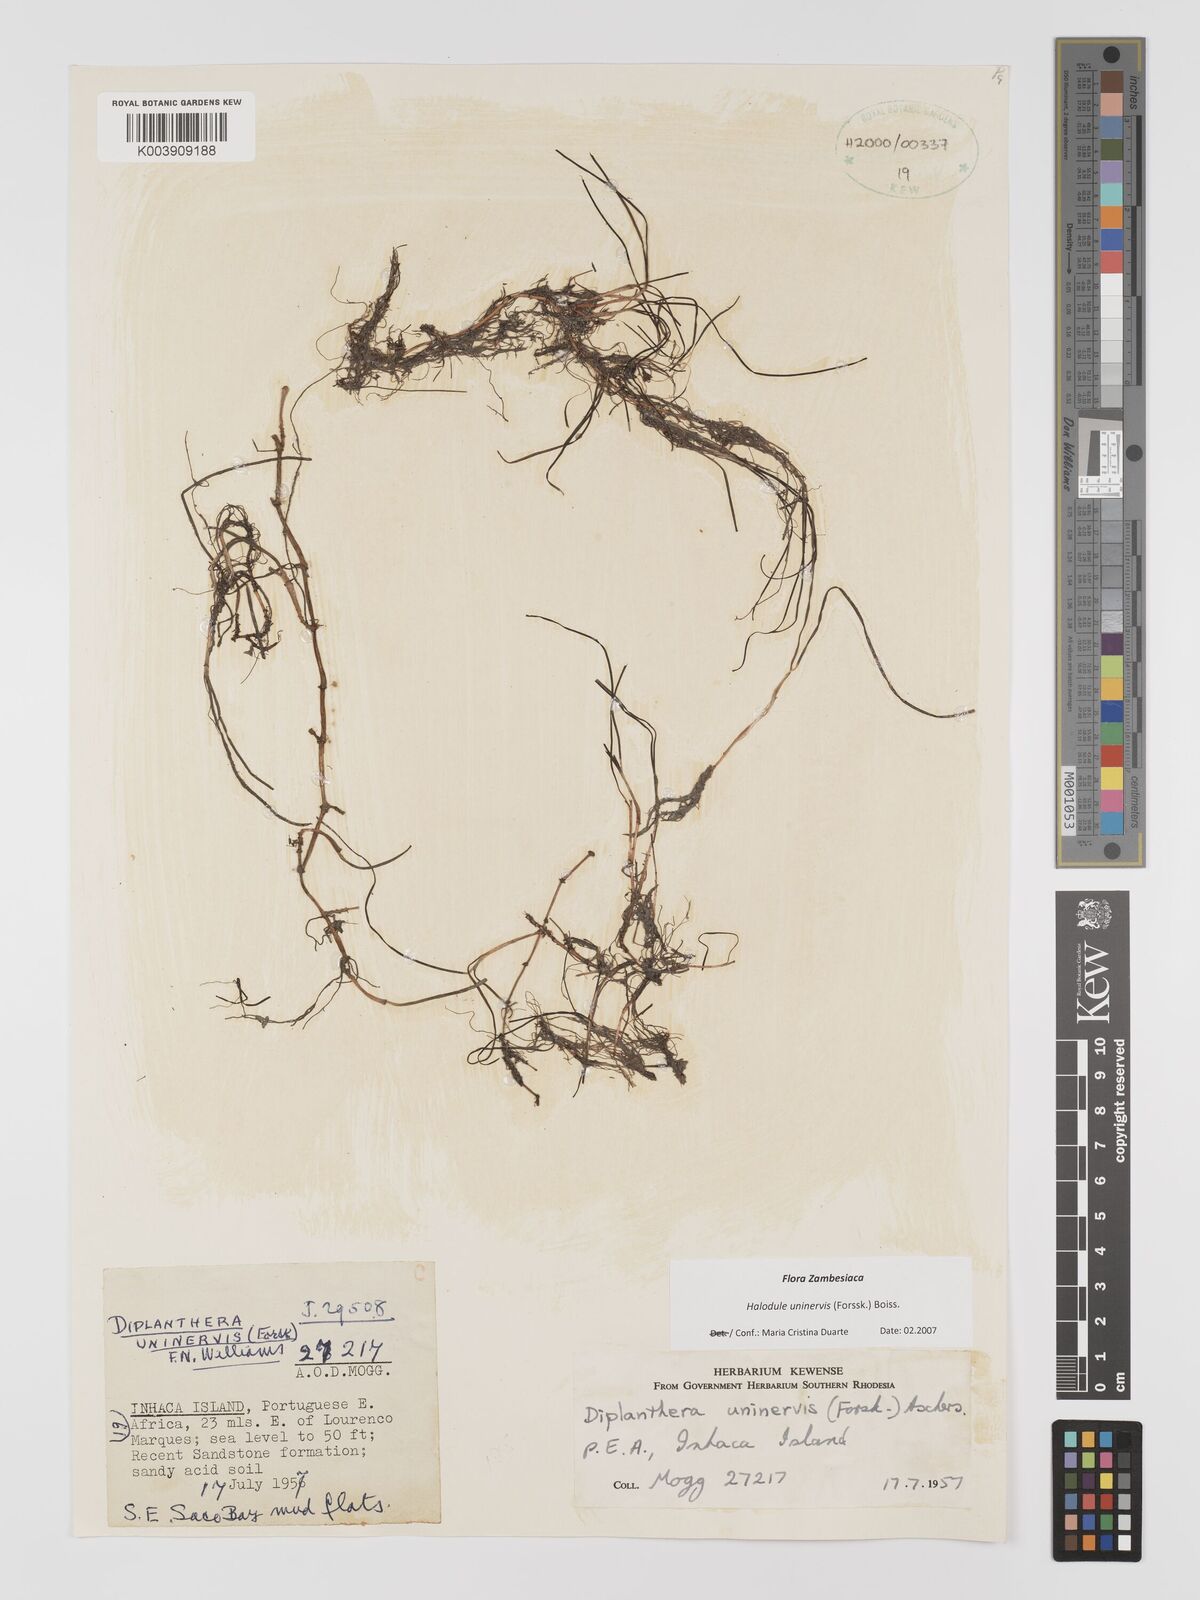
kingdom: Plantae
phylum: Tracheophyta
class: Liliopsida
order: Alismatales
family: Cymodoceaceae
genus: Halodule
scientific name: Halodule uninervis
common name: Narrowleaf seagrass
